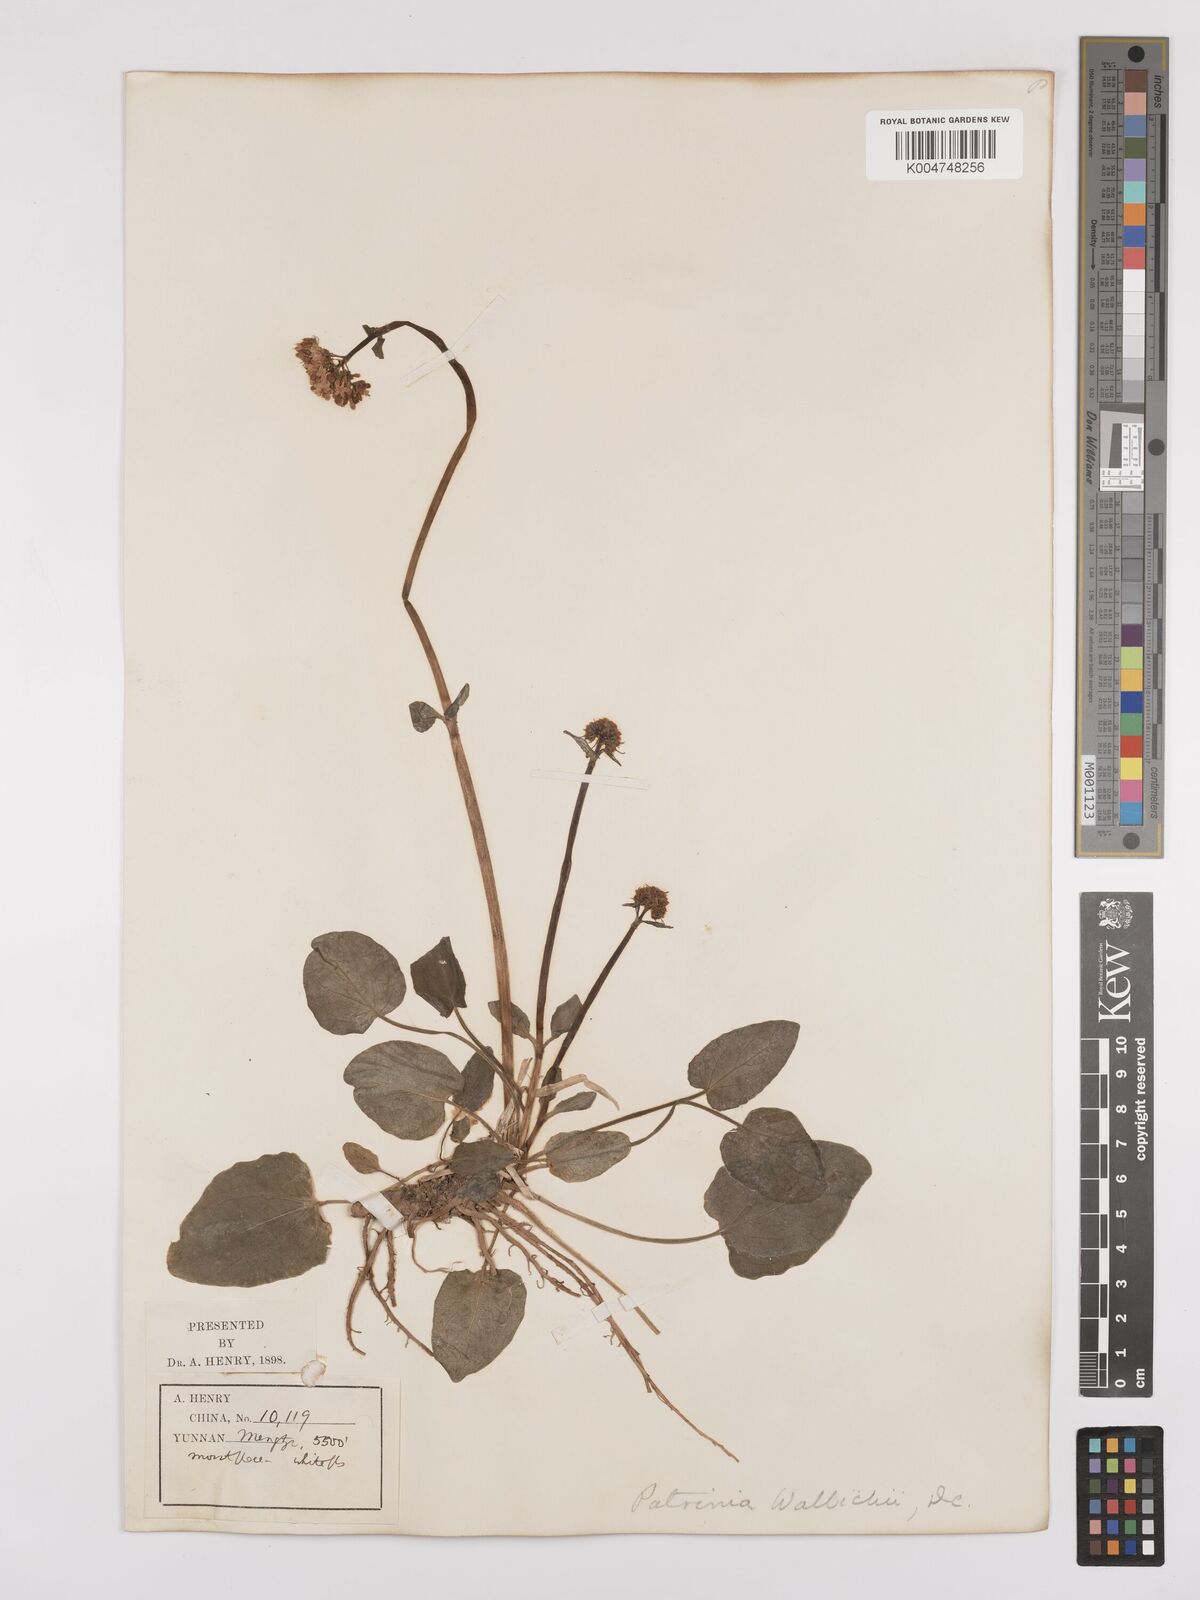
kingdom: Plantae
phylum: Tracheophyta
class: Magnoliopsida
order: Dipsacales
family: Caprifoliaceae
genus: Valeriana
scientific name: Valeriana
